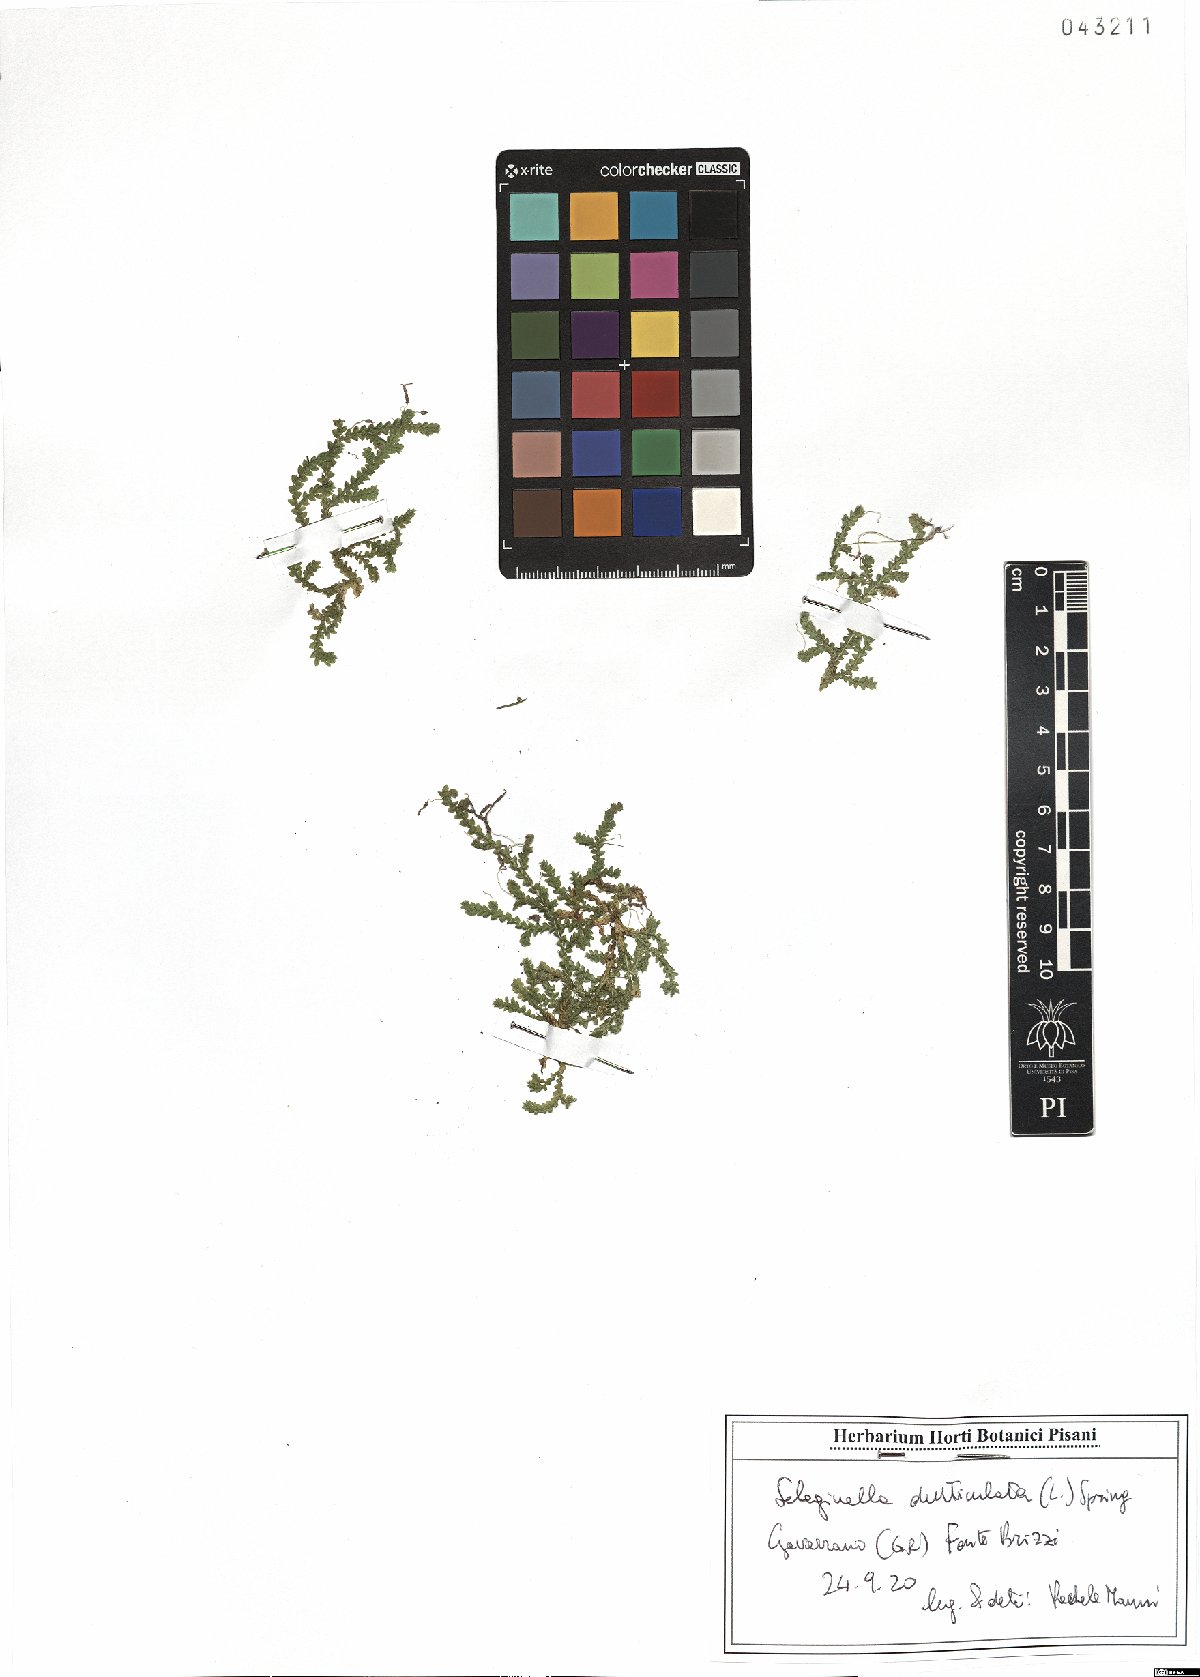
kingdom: Plantae
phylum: Tracheophyta
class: Lycopodiopsida
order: Selaginellales
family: Selaginellaceae
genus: Selaginella
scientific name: Selaginella denticulata
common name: Toothed-leaved clubmoss
